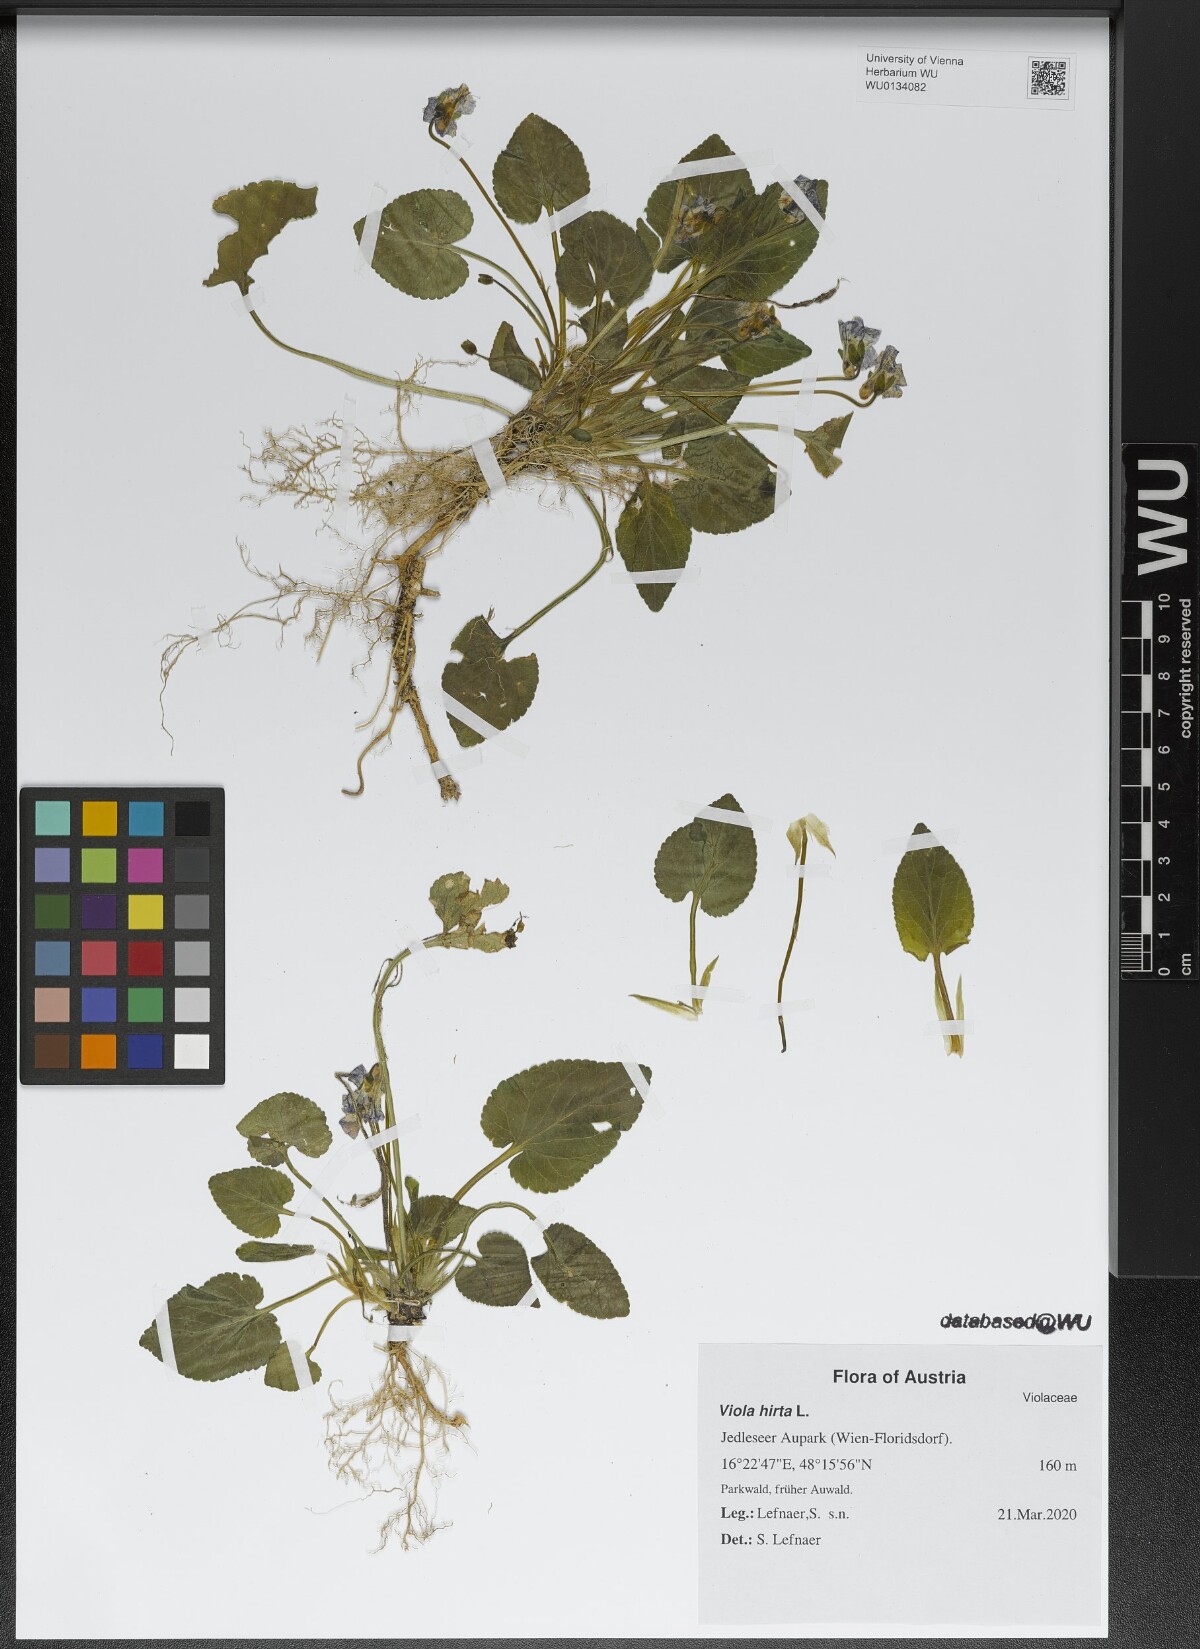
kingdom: Plantae
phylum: Tracheophyta
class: Magnoliopsida
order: Malpighiales
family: Violaceae
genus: Viola
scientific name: Viola hirta
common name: Hairy violet
